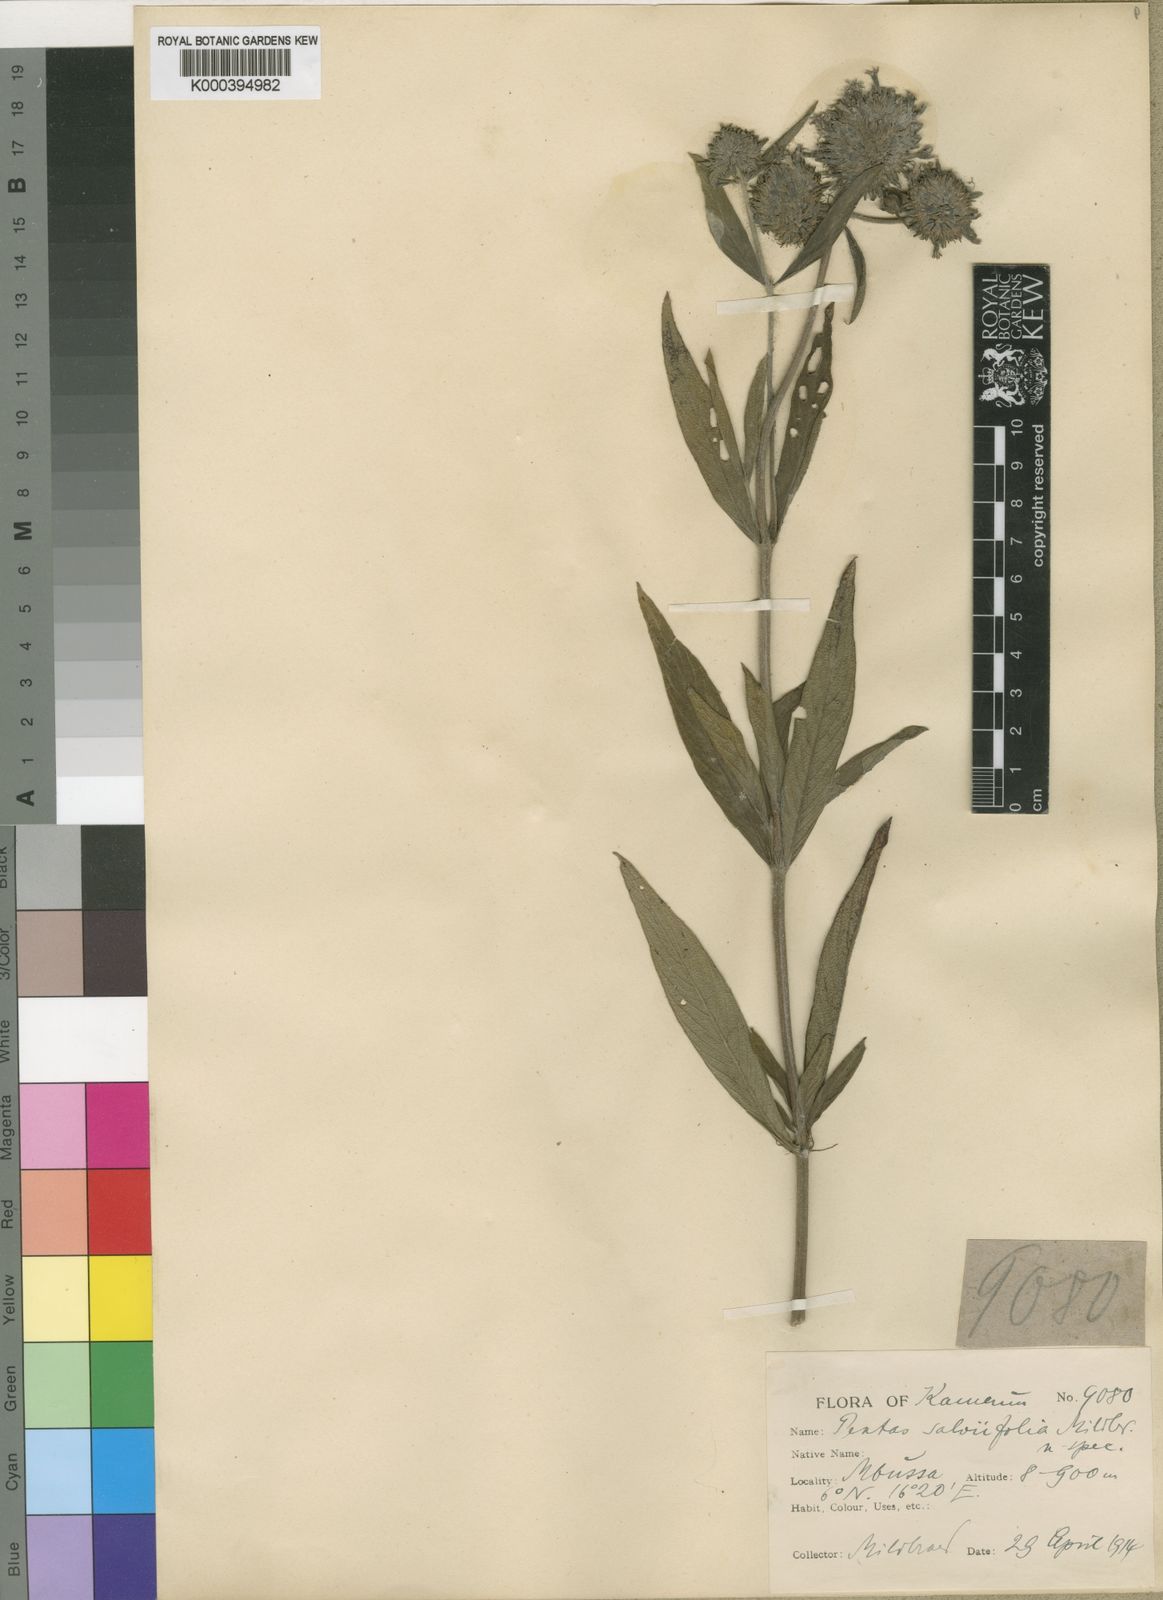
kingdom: Plantae
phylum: Tracheophyta
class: Magnoliopsida
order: Gentianales
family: Rubiaceae
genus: Pentas
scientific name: Pentas purpurea
